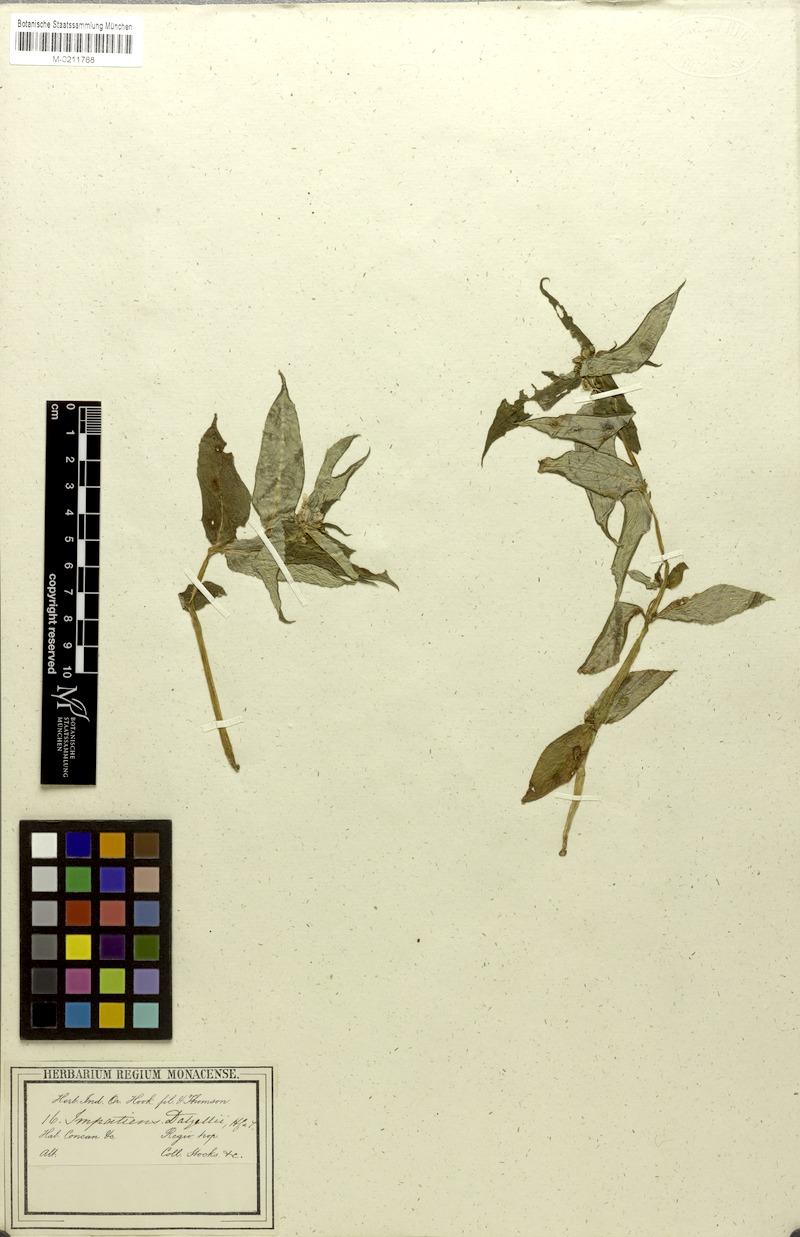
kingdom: Plantae
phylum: Tracheophyta
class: Magnoliopsida
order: Ericales
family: Balsaminaceae
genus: Impatiens
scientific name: Impatiens dalzellii
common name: Dalzell's yellow balsam
